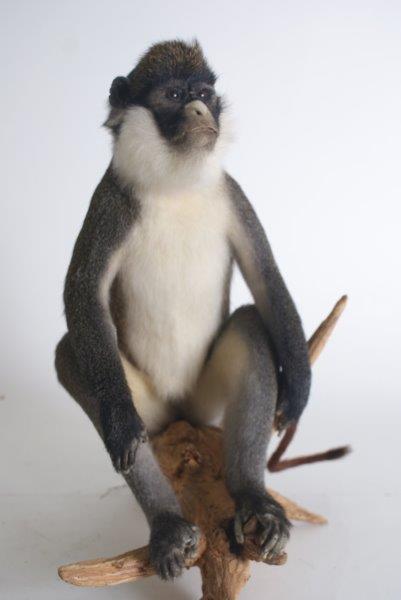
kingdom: Animalia
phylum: Chordata
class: Mammalia
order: Primates
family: Cercopithecidae
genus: Cercopithecus
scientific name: Cercopithecus petaurista
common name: Lesser Spot-nosed Monkey
